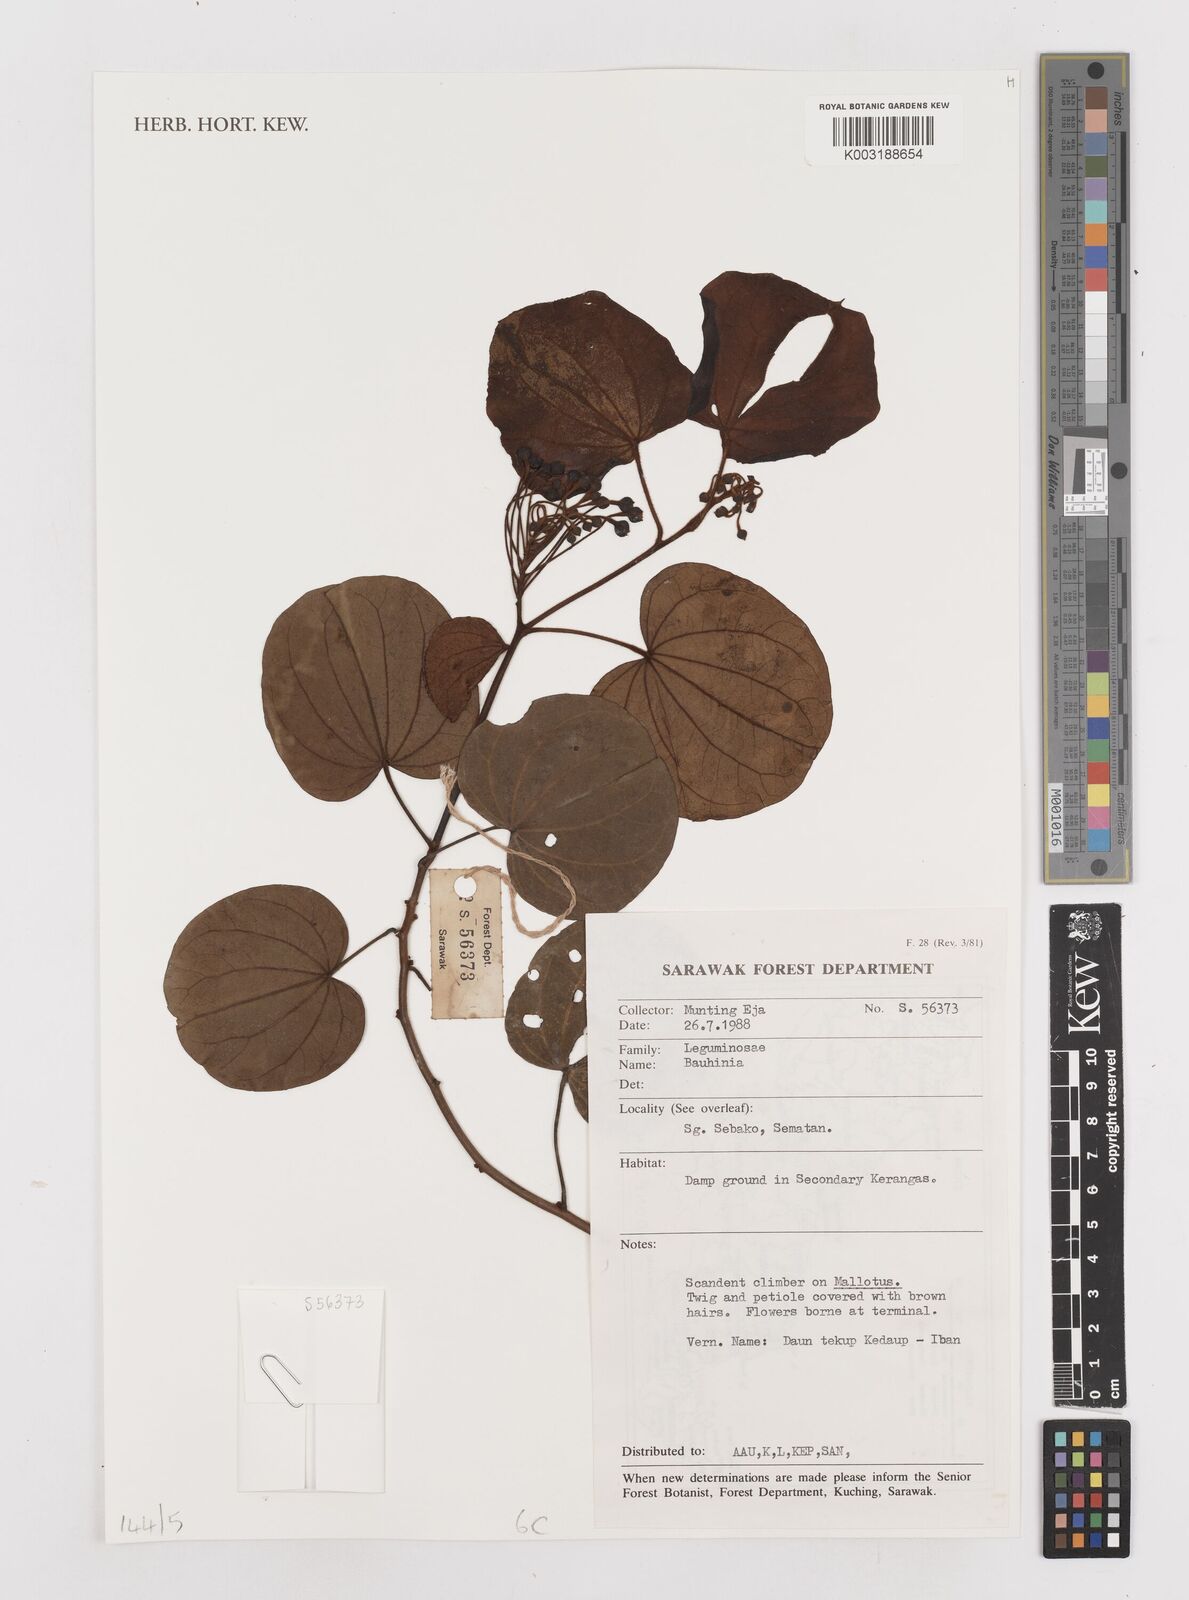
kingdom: Plantae
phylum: Tracheophyta
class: Magnoliopsida
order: Fabales
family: Fabaceae
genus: Bauhinia
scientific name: Bauhinia
